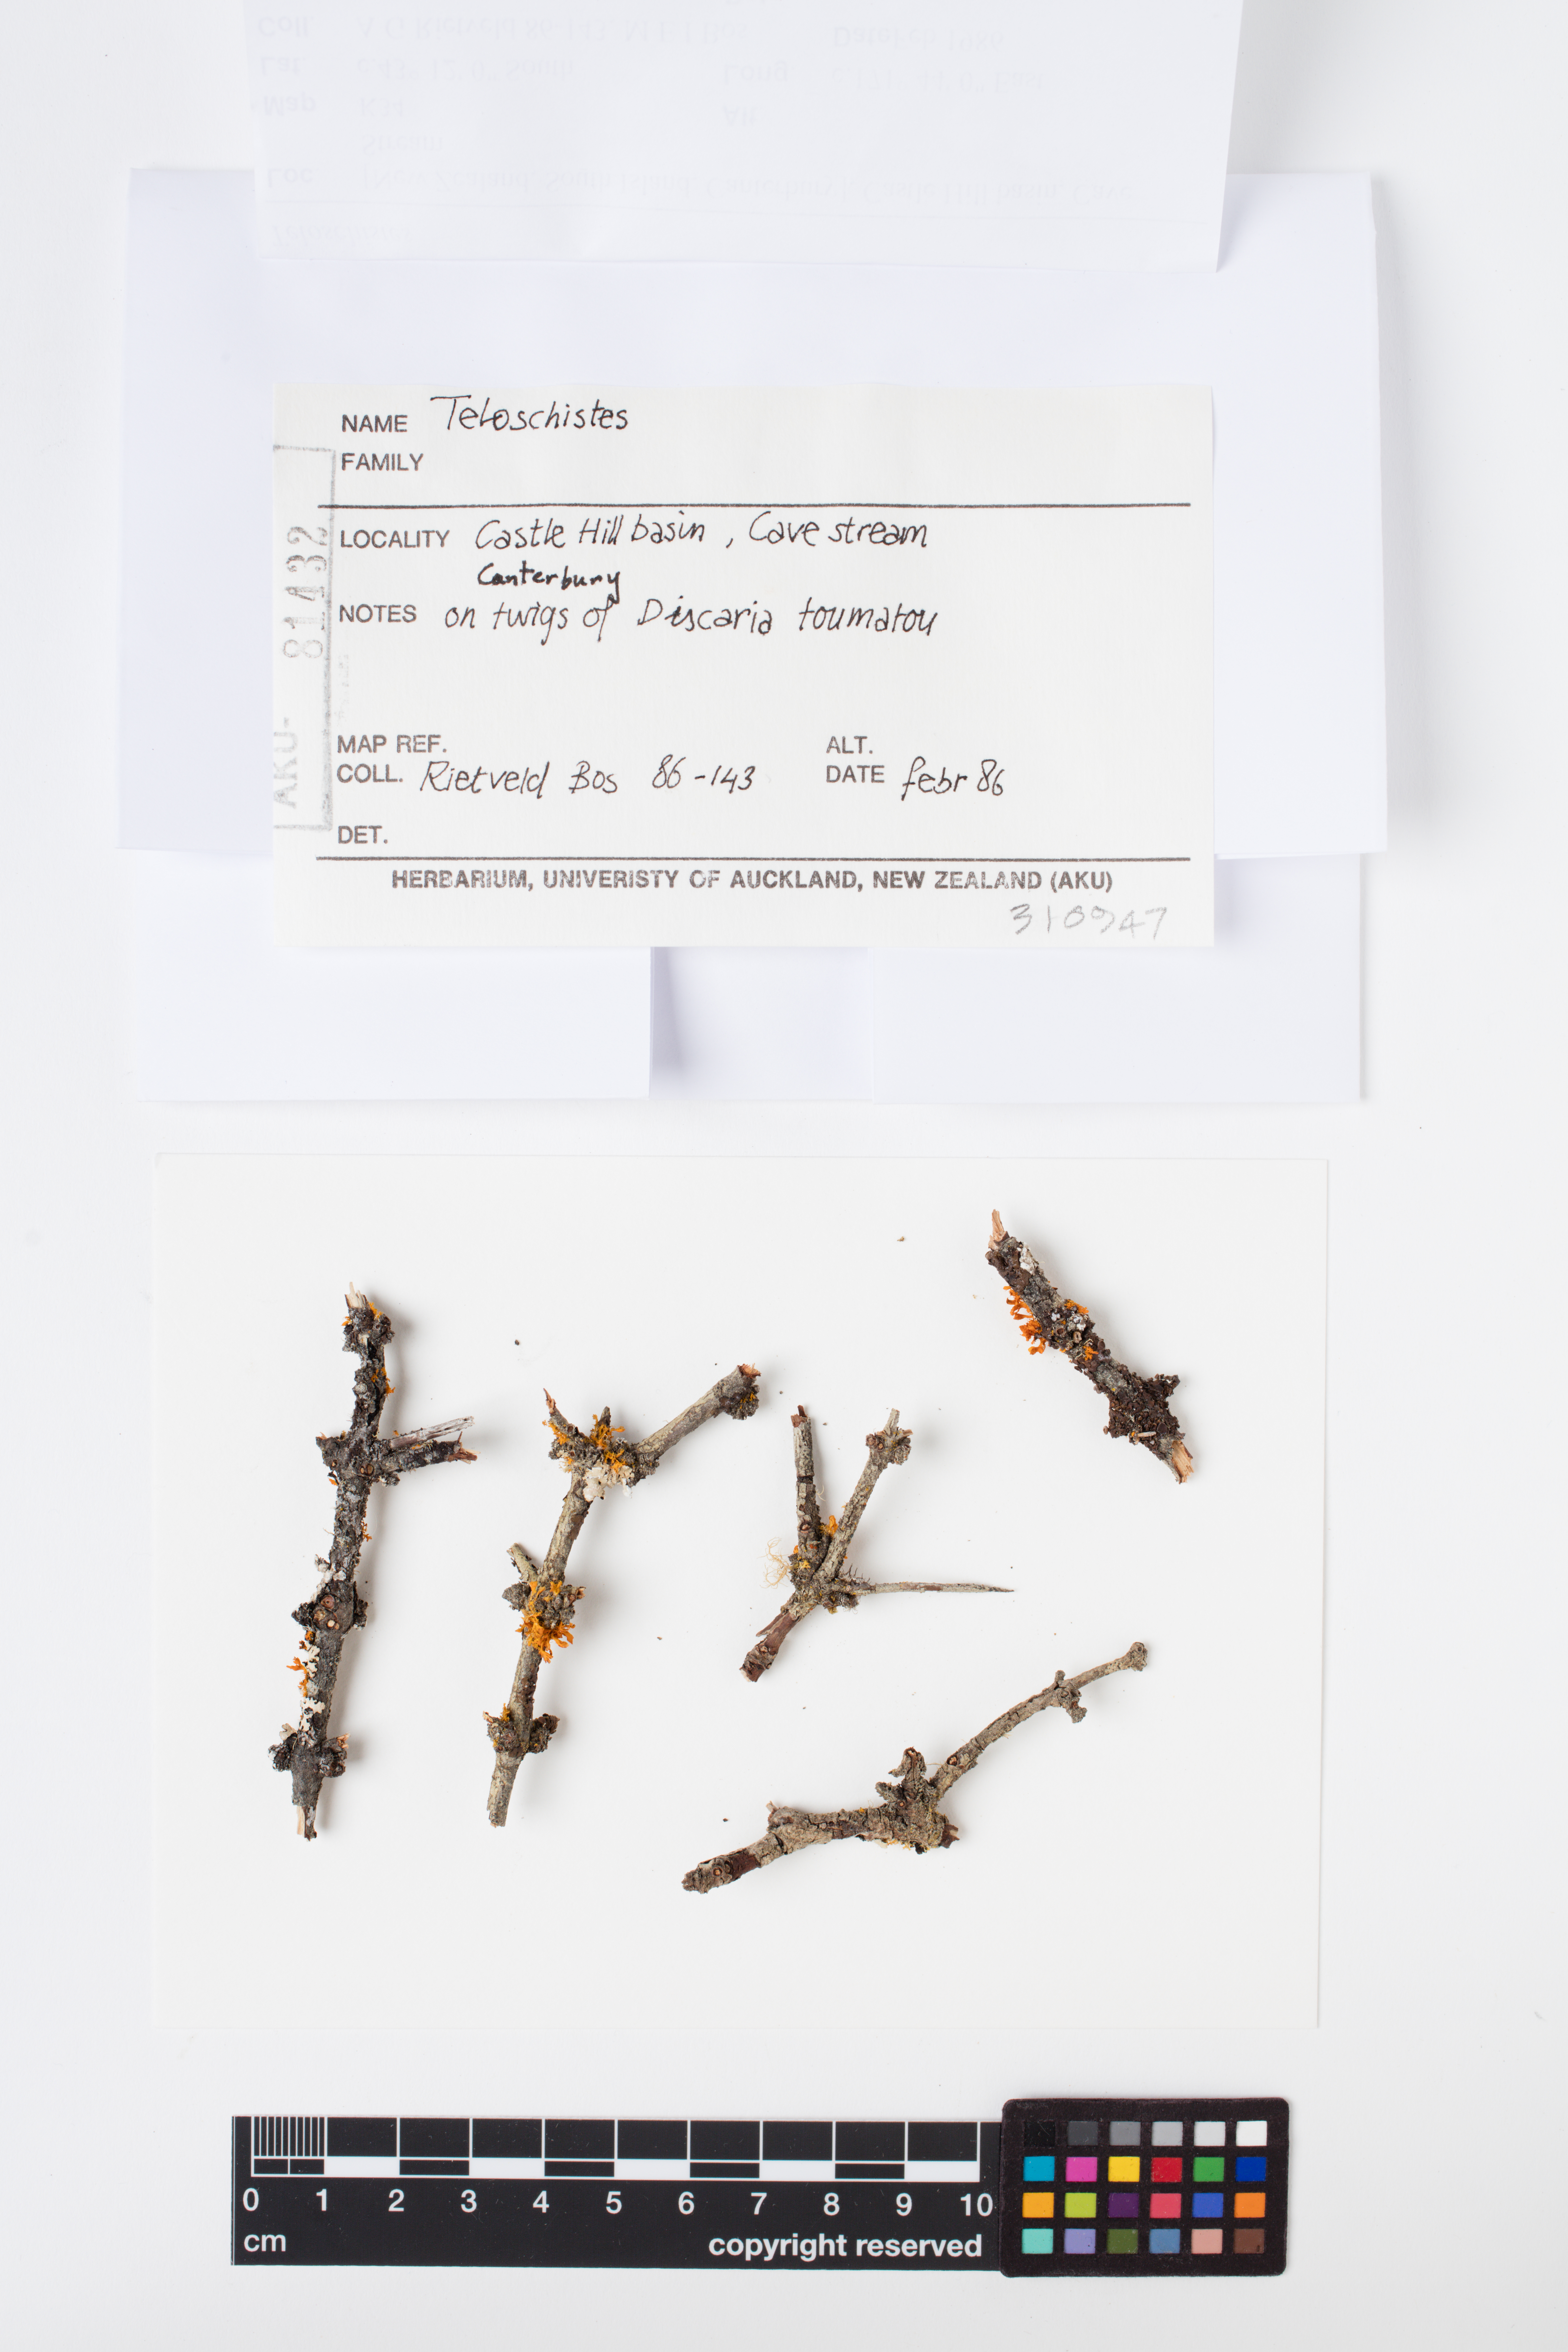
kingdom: Fungi
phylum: Ascomycota
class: Lecanoromycetes
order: Teloschistales
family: Teloschistaceae
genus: Teloschistes
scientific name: Teloschistes velifer
